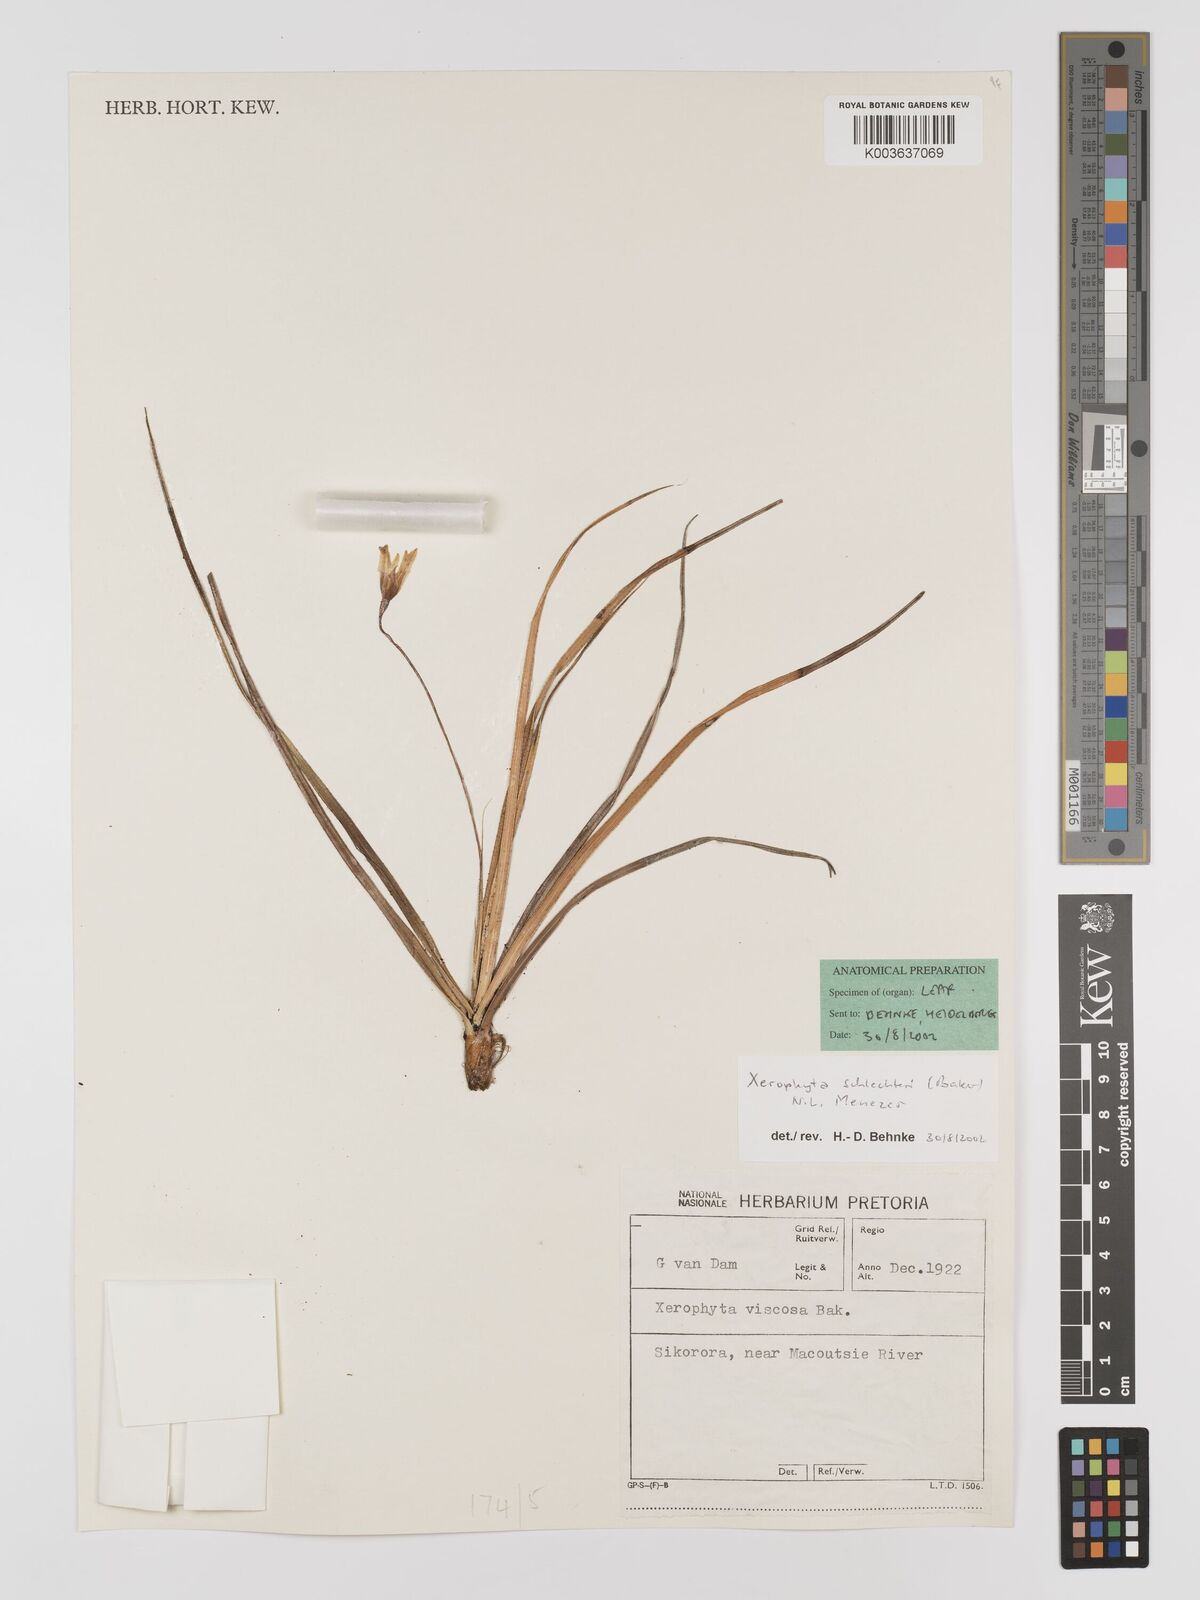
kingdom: Plantae
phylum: Tracheophyta
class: Liliopsida
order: Pandanales
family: Velloziaceae
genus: Xerophyta
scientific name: Xerophyta schlechteri
